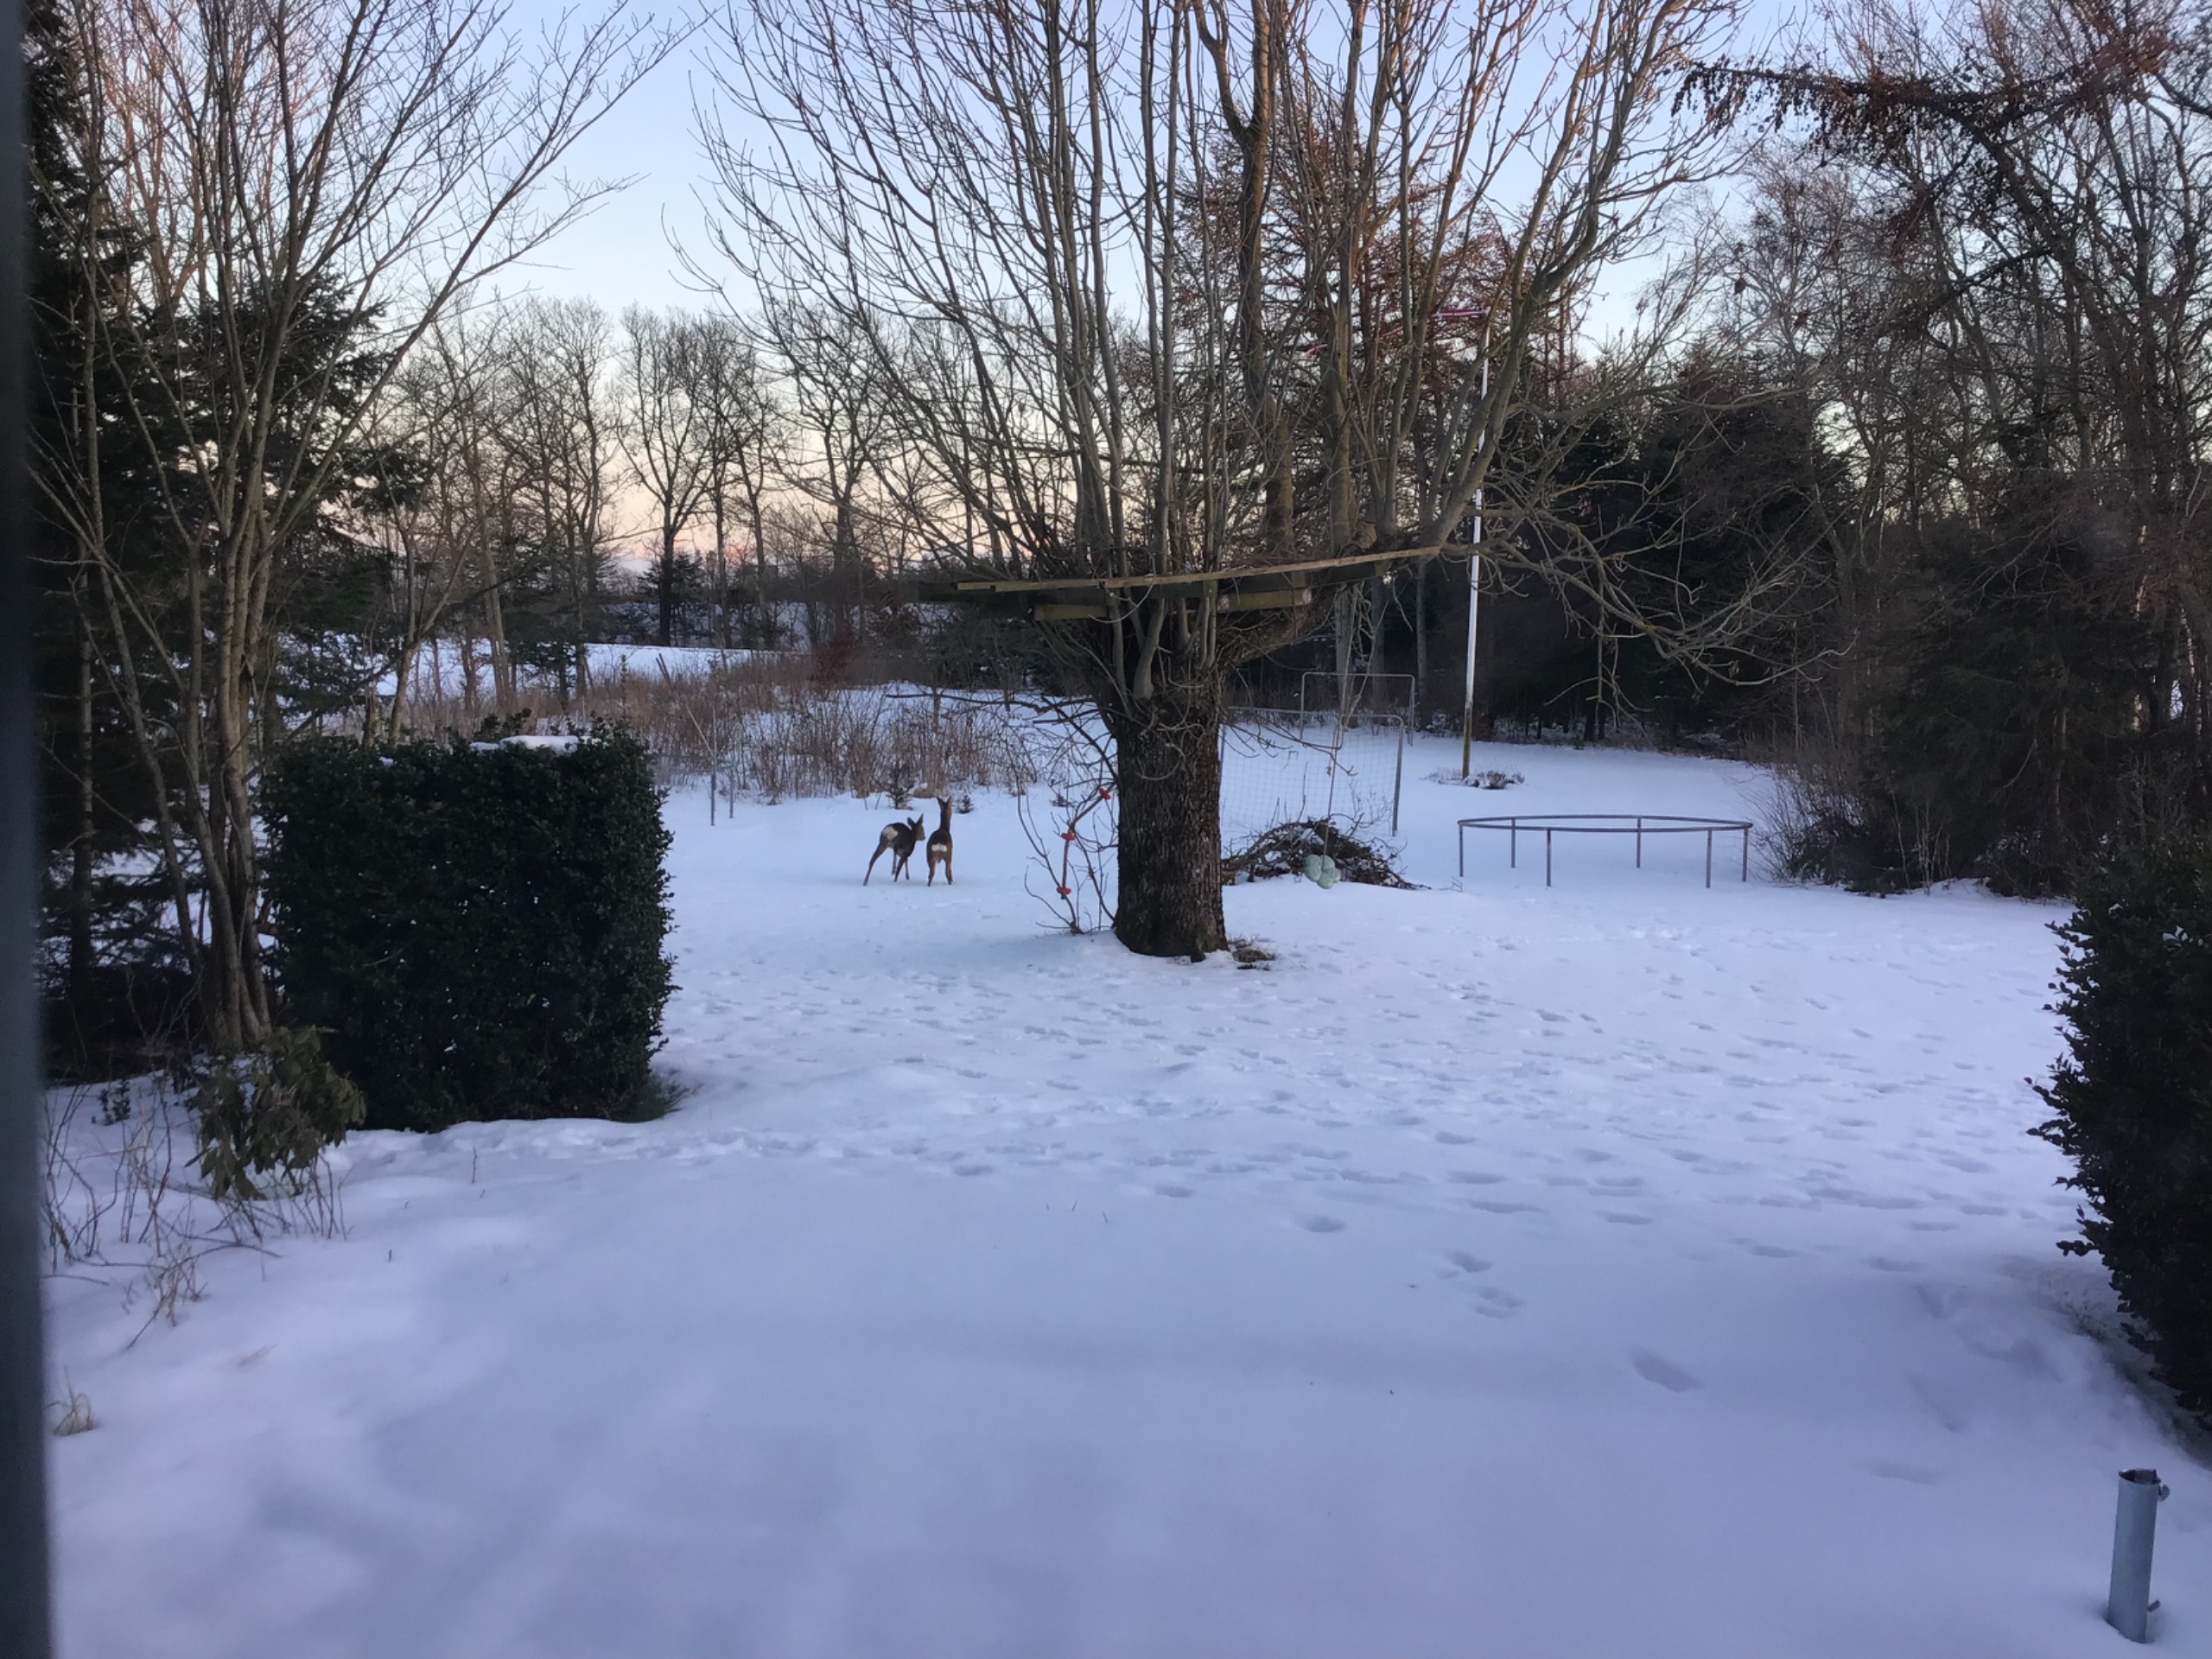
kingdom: Animalia
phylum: Chordata
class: Mammalia
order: Artiodactyla
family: Cervidae
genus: Capreolus
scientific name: Capreolus capreolus
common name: Rådyr
